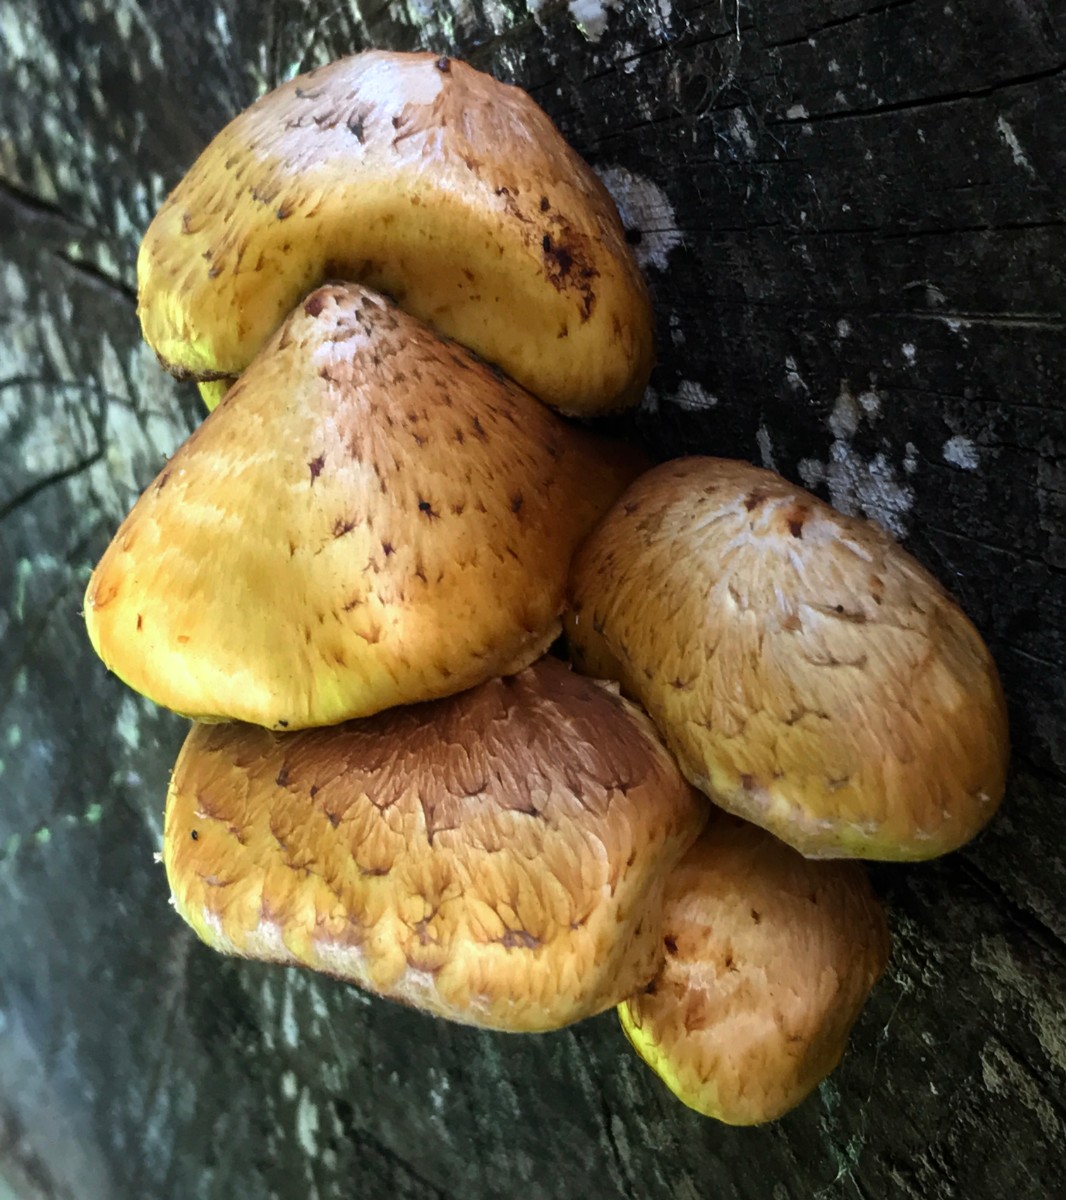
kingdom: Fungi
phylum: Basidiomycota
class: Agaricomycetes
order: Agaricales
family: Strophariaceae
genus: Pholiota
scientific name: Pholiota adiposa
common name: højtsiddende skælhat
